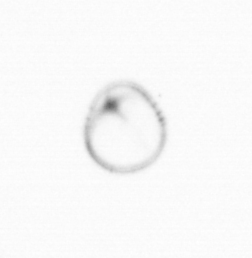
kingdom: Chromista
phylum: Myzozoa
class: Dinophyceae
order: Noctilucales
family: Noctilucaceae
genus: Noctiluca
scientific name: Noctiluca scintillans
